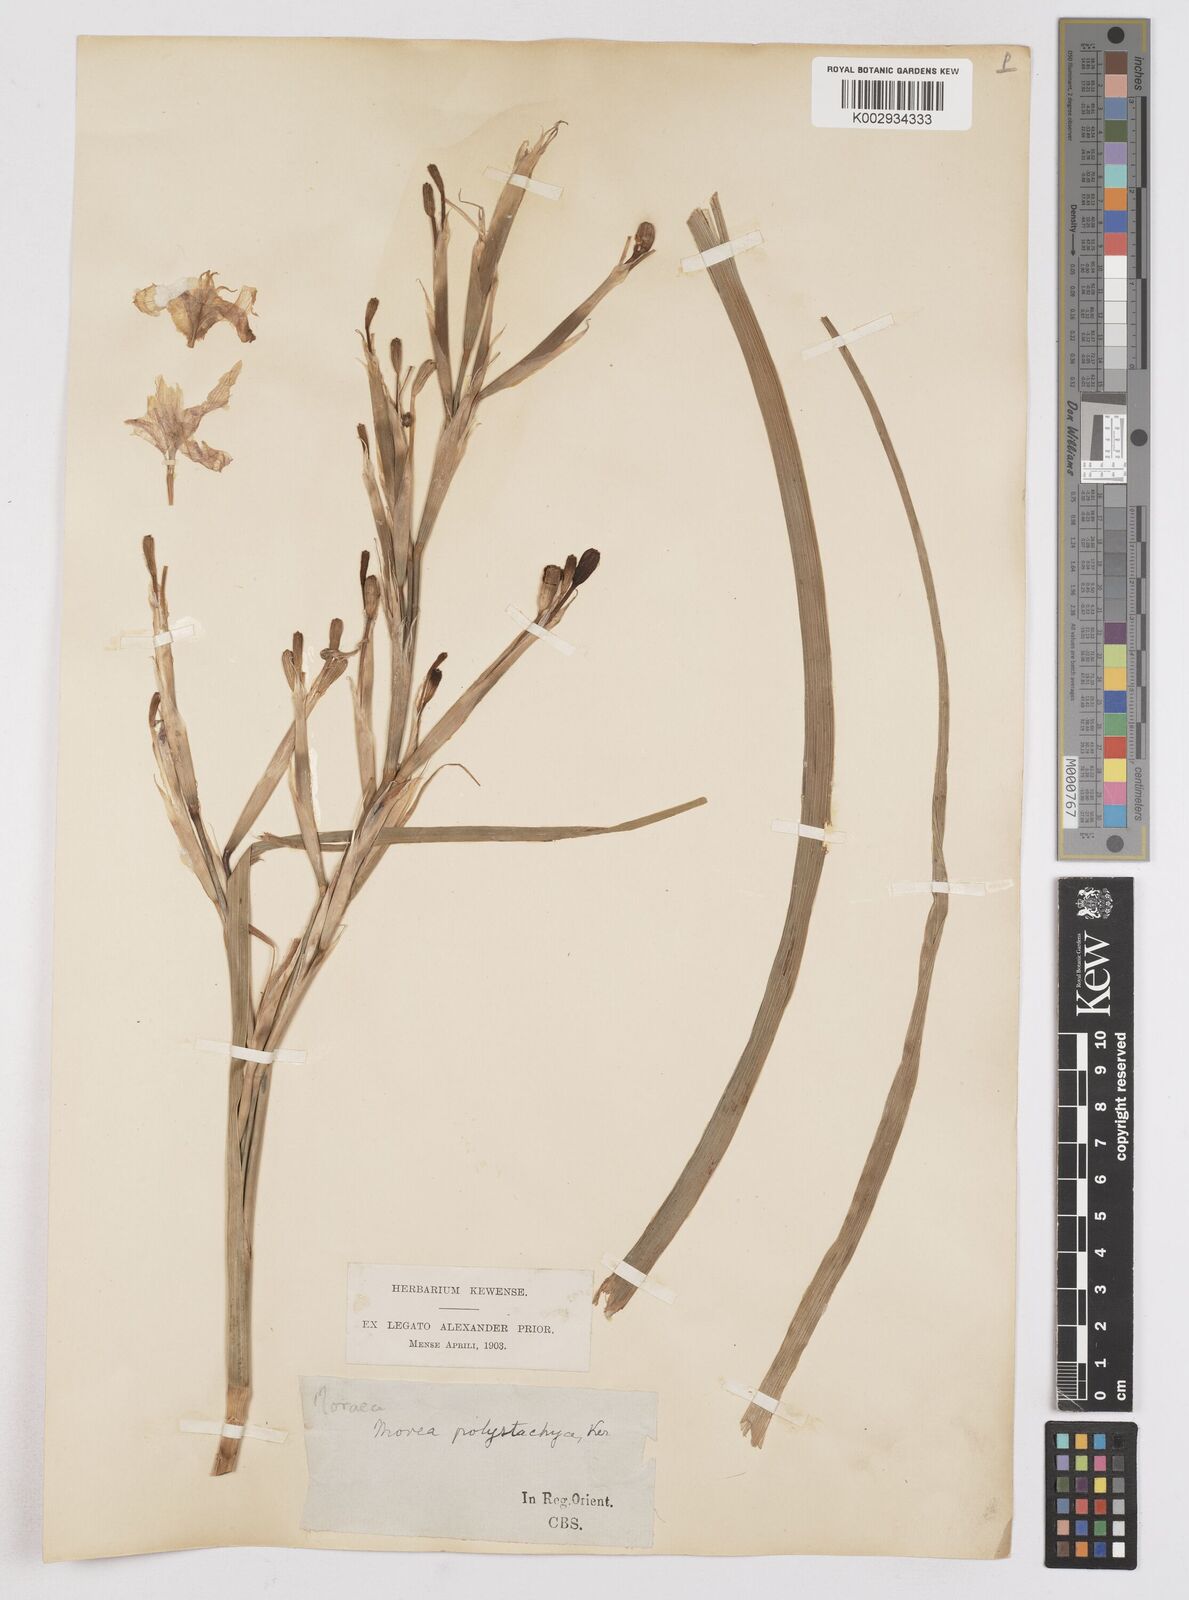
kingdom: Plantae
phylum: Tracheophyta
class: Liliopsida
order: Asparagales
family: Iridaceae
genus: Moraea
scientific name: Moraea polystachya
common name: Blue-tulip
